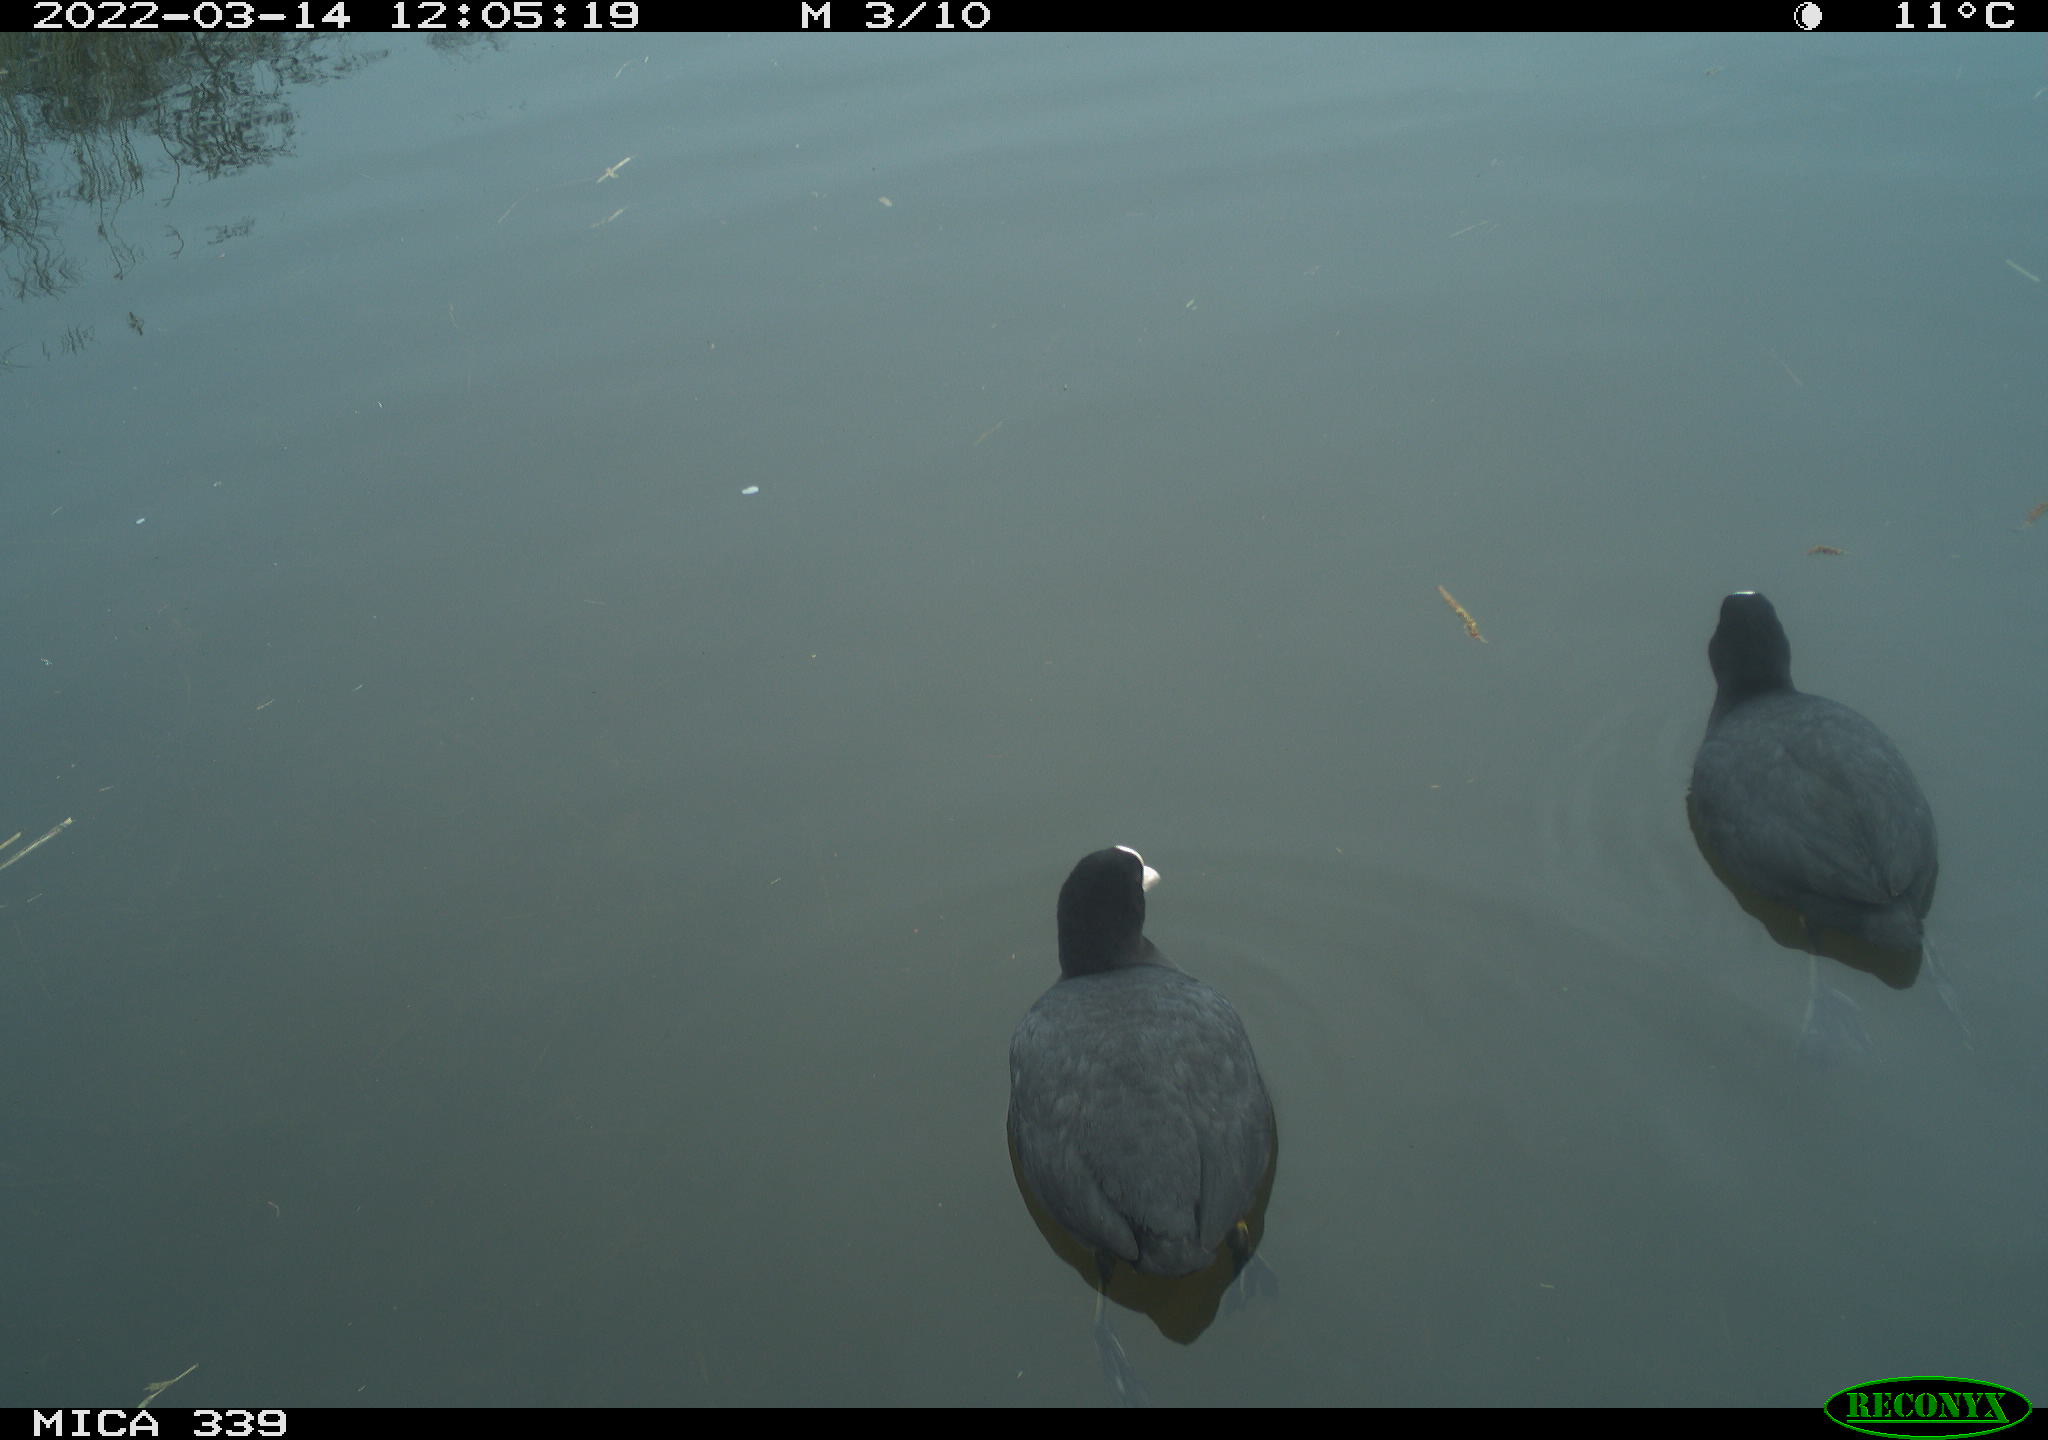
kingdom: Animalia
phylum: Chordata
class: Aves
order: Gruiformes
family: Rallidae
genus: Fulica
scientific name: Fulica atra
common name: Eurasian coot
